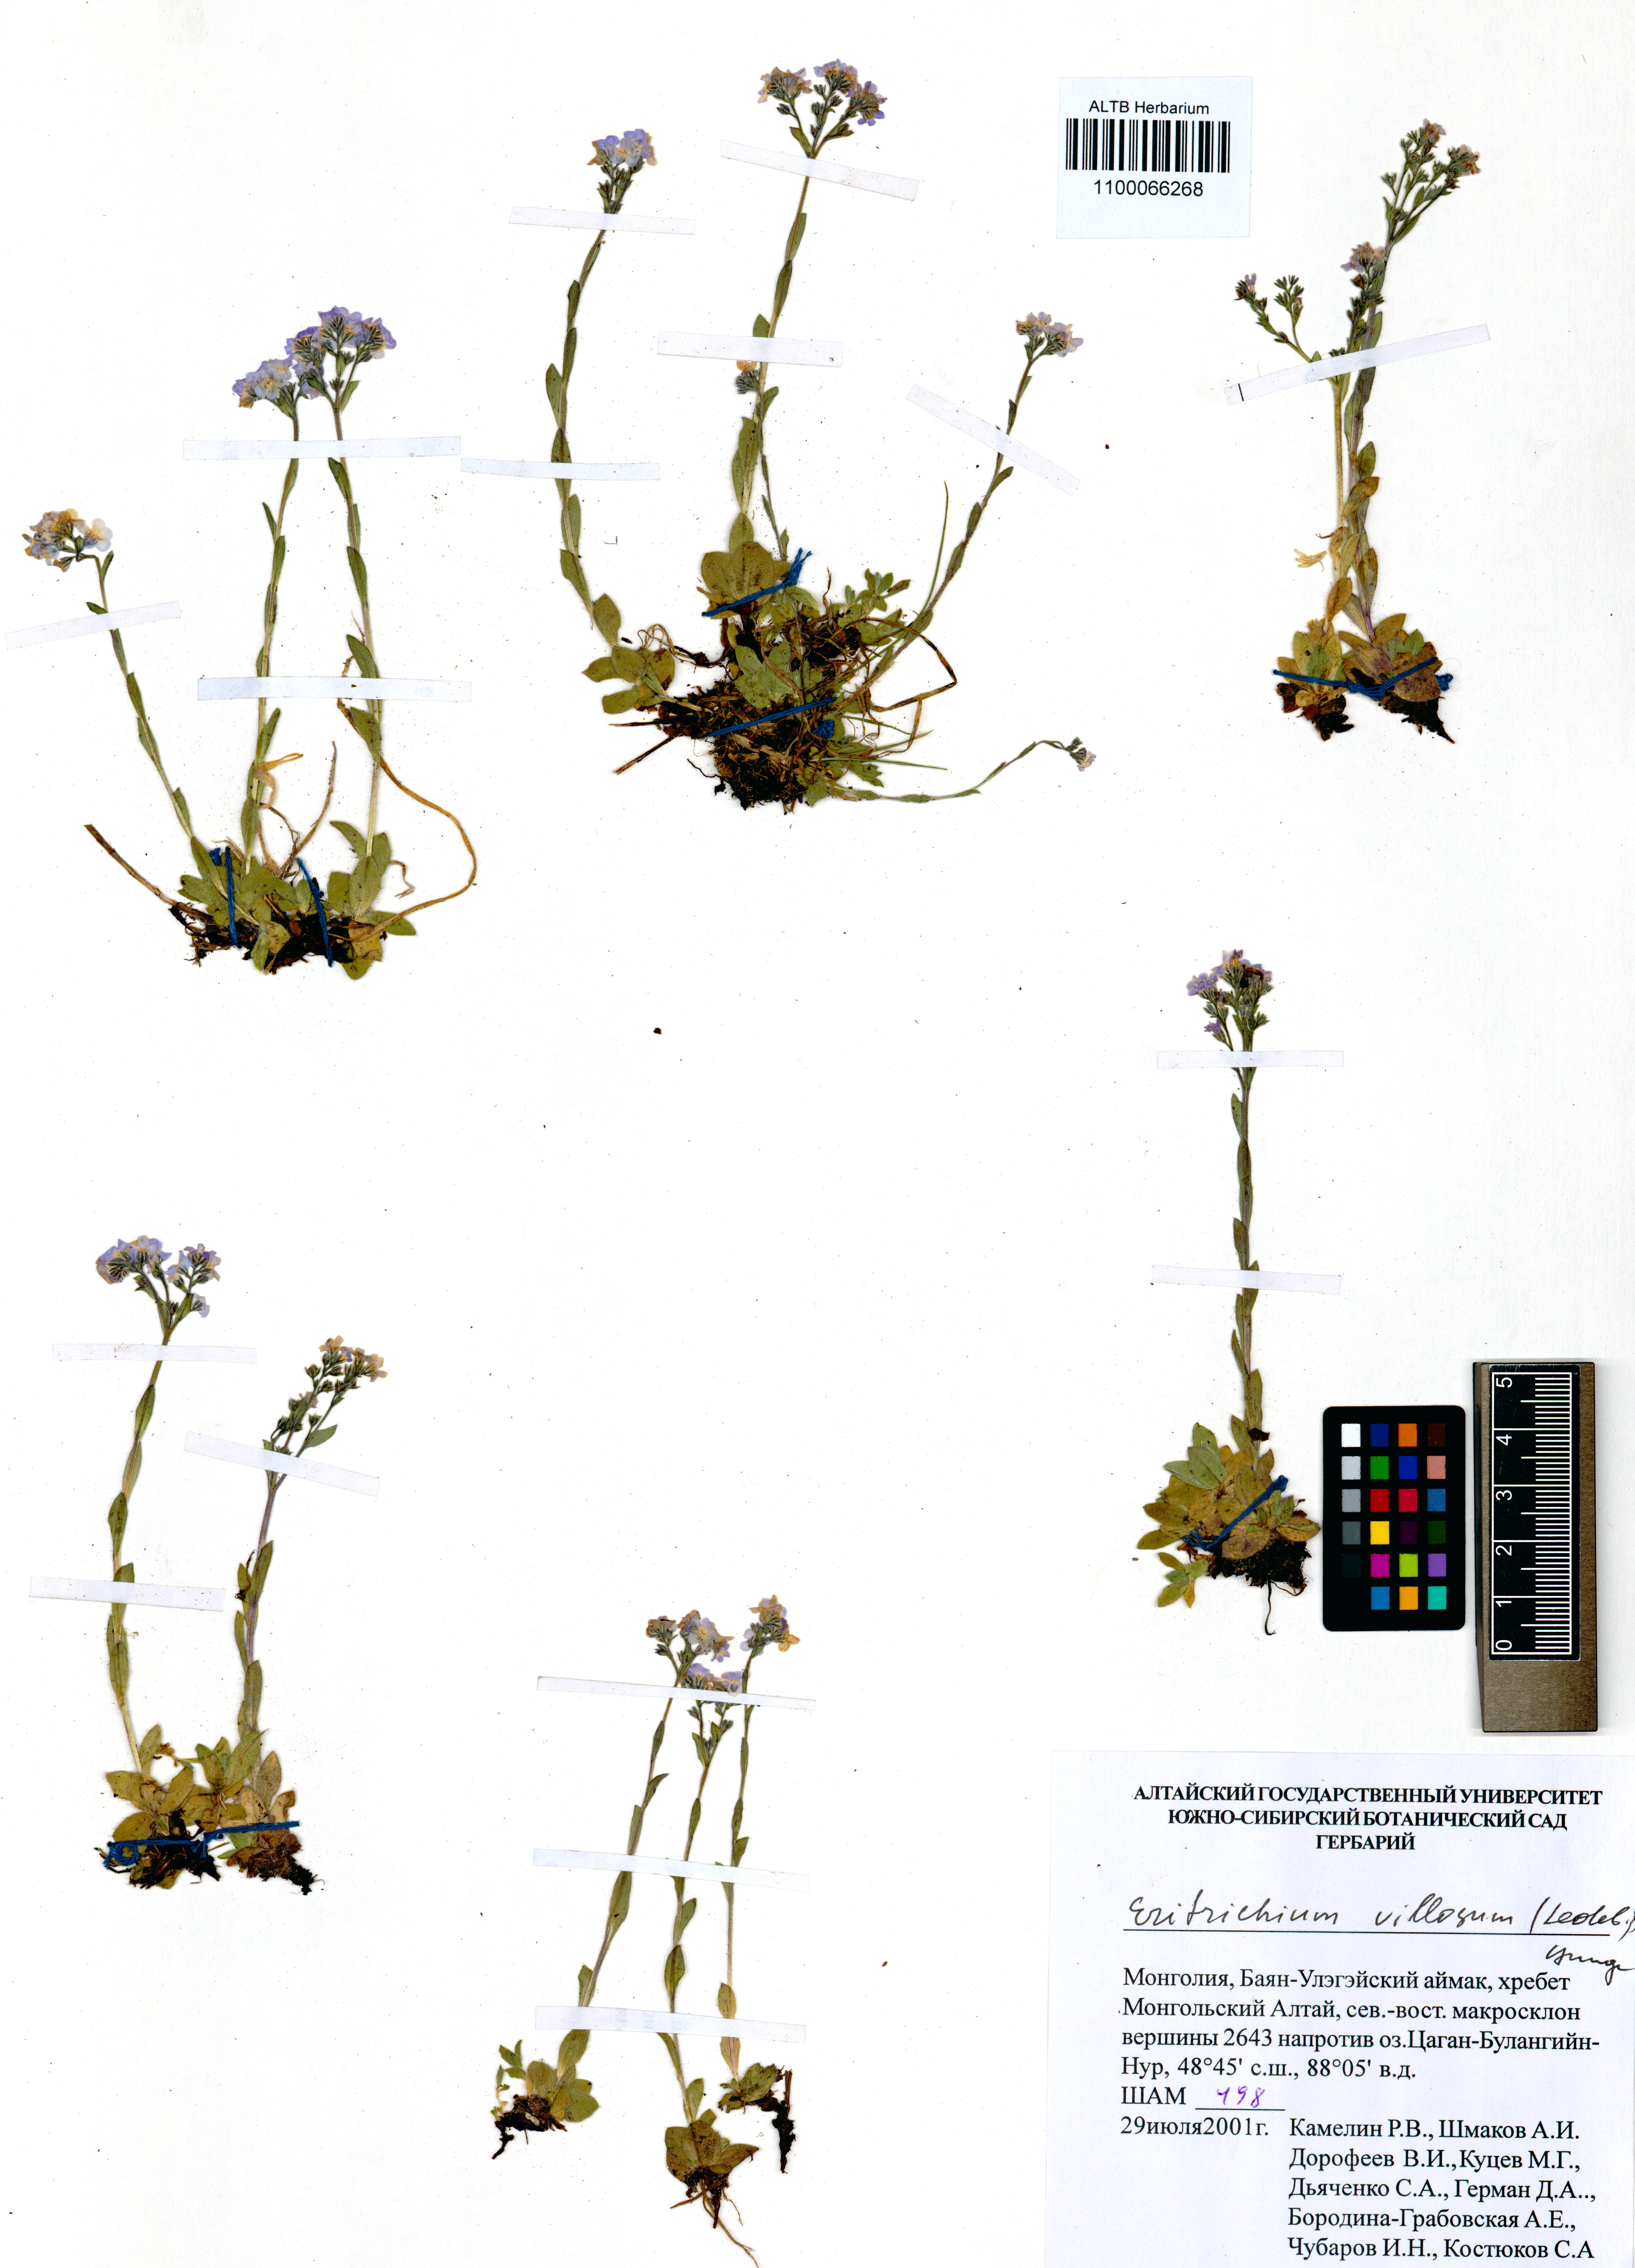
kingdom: Plantae
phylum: Tracheophyta
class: Magnoliopsida
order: Boraginales
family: Boraginaceae
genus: Eritrichium
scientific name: Eritrichium villosum
